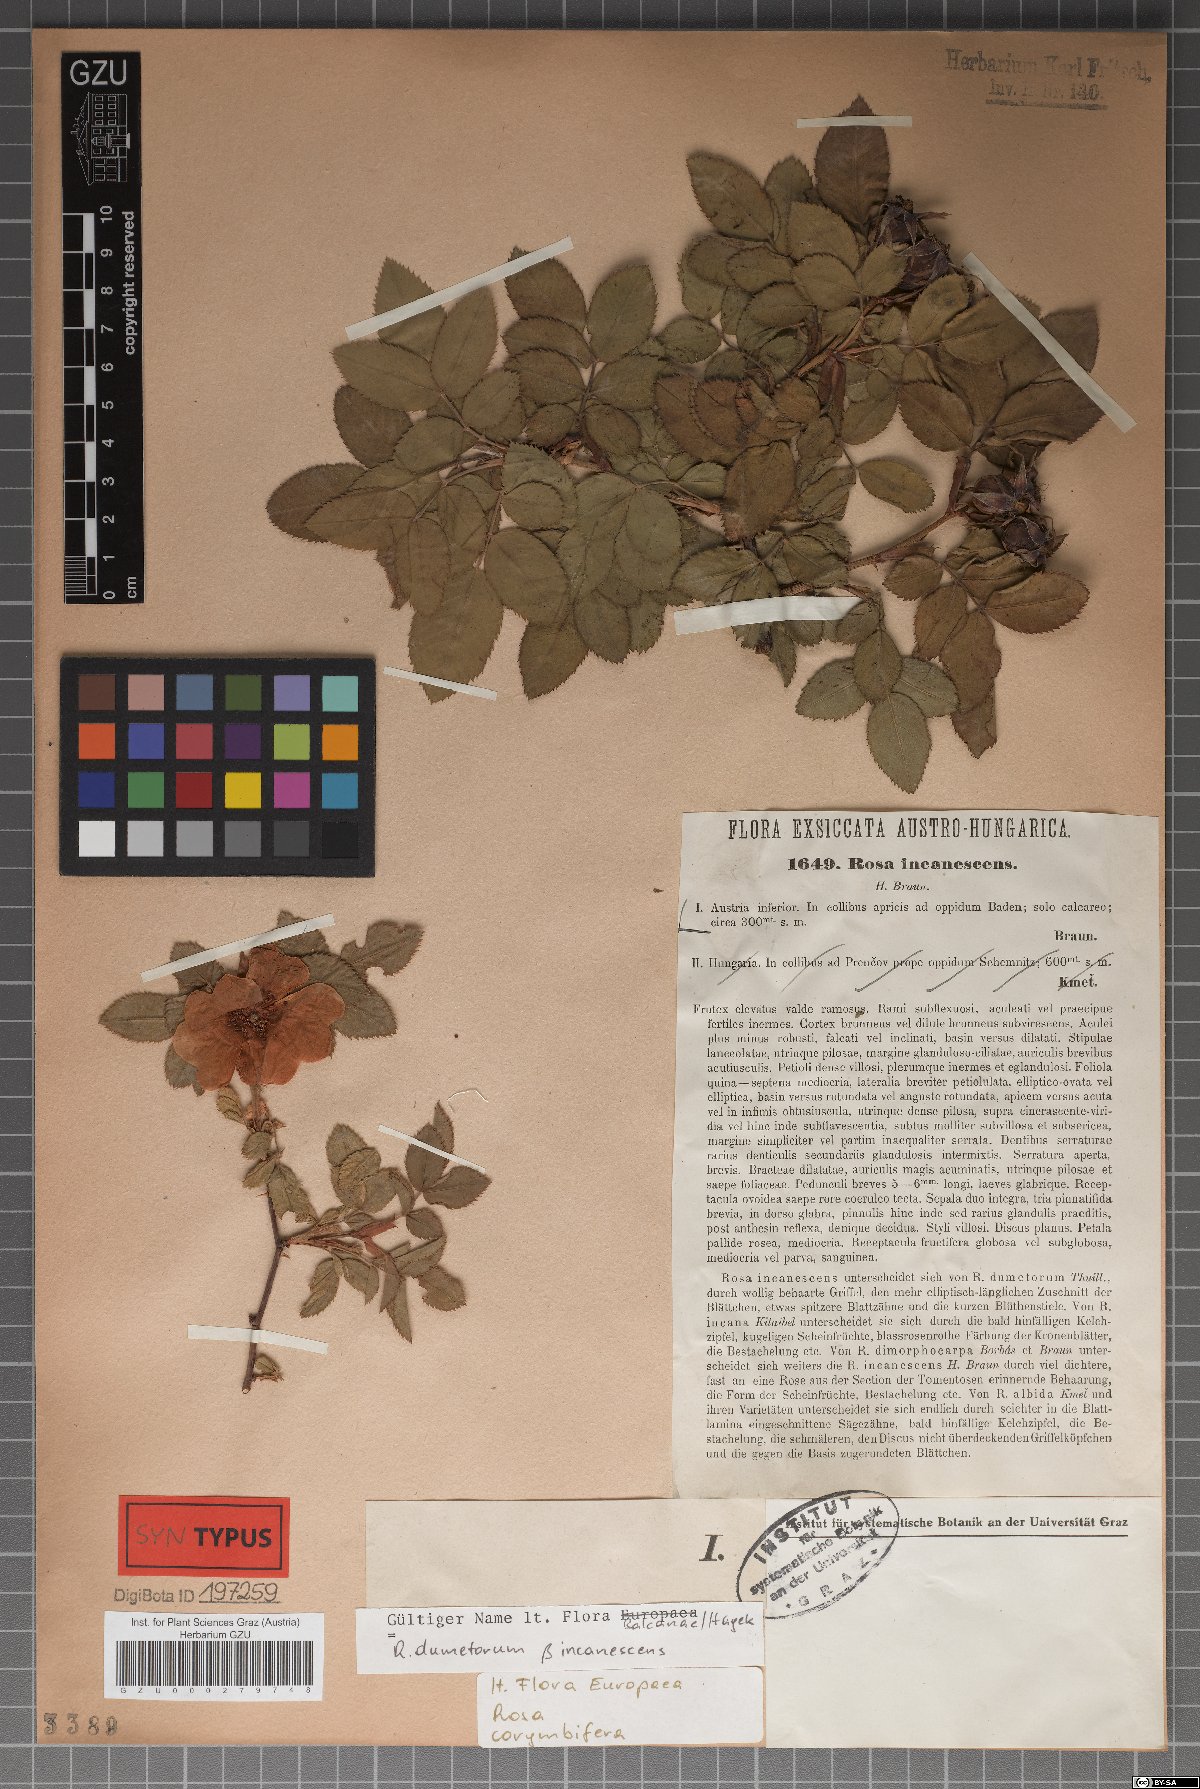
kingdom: Plantae
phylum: Tracheophyta
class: Magnoliopsida
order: Rosales
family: Rosaceae
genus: Rosa
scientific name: Rosa corymbifera
